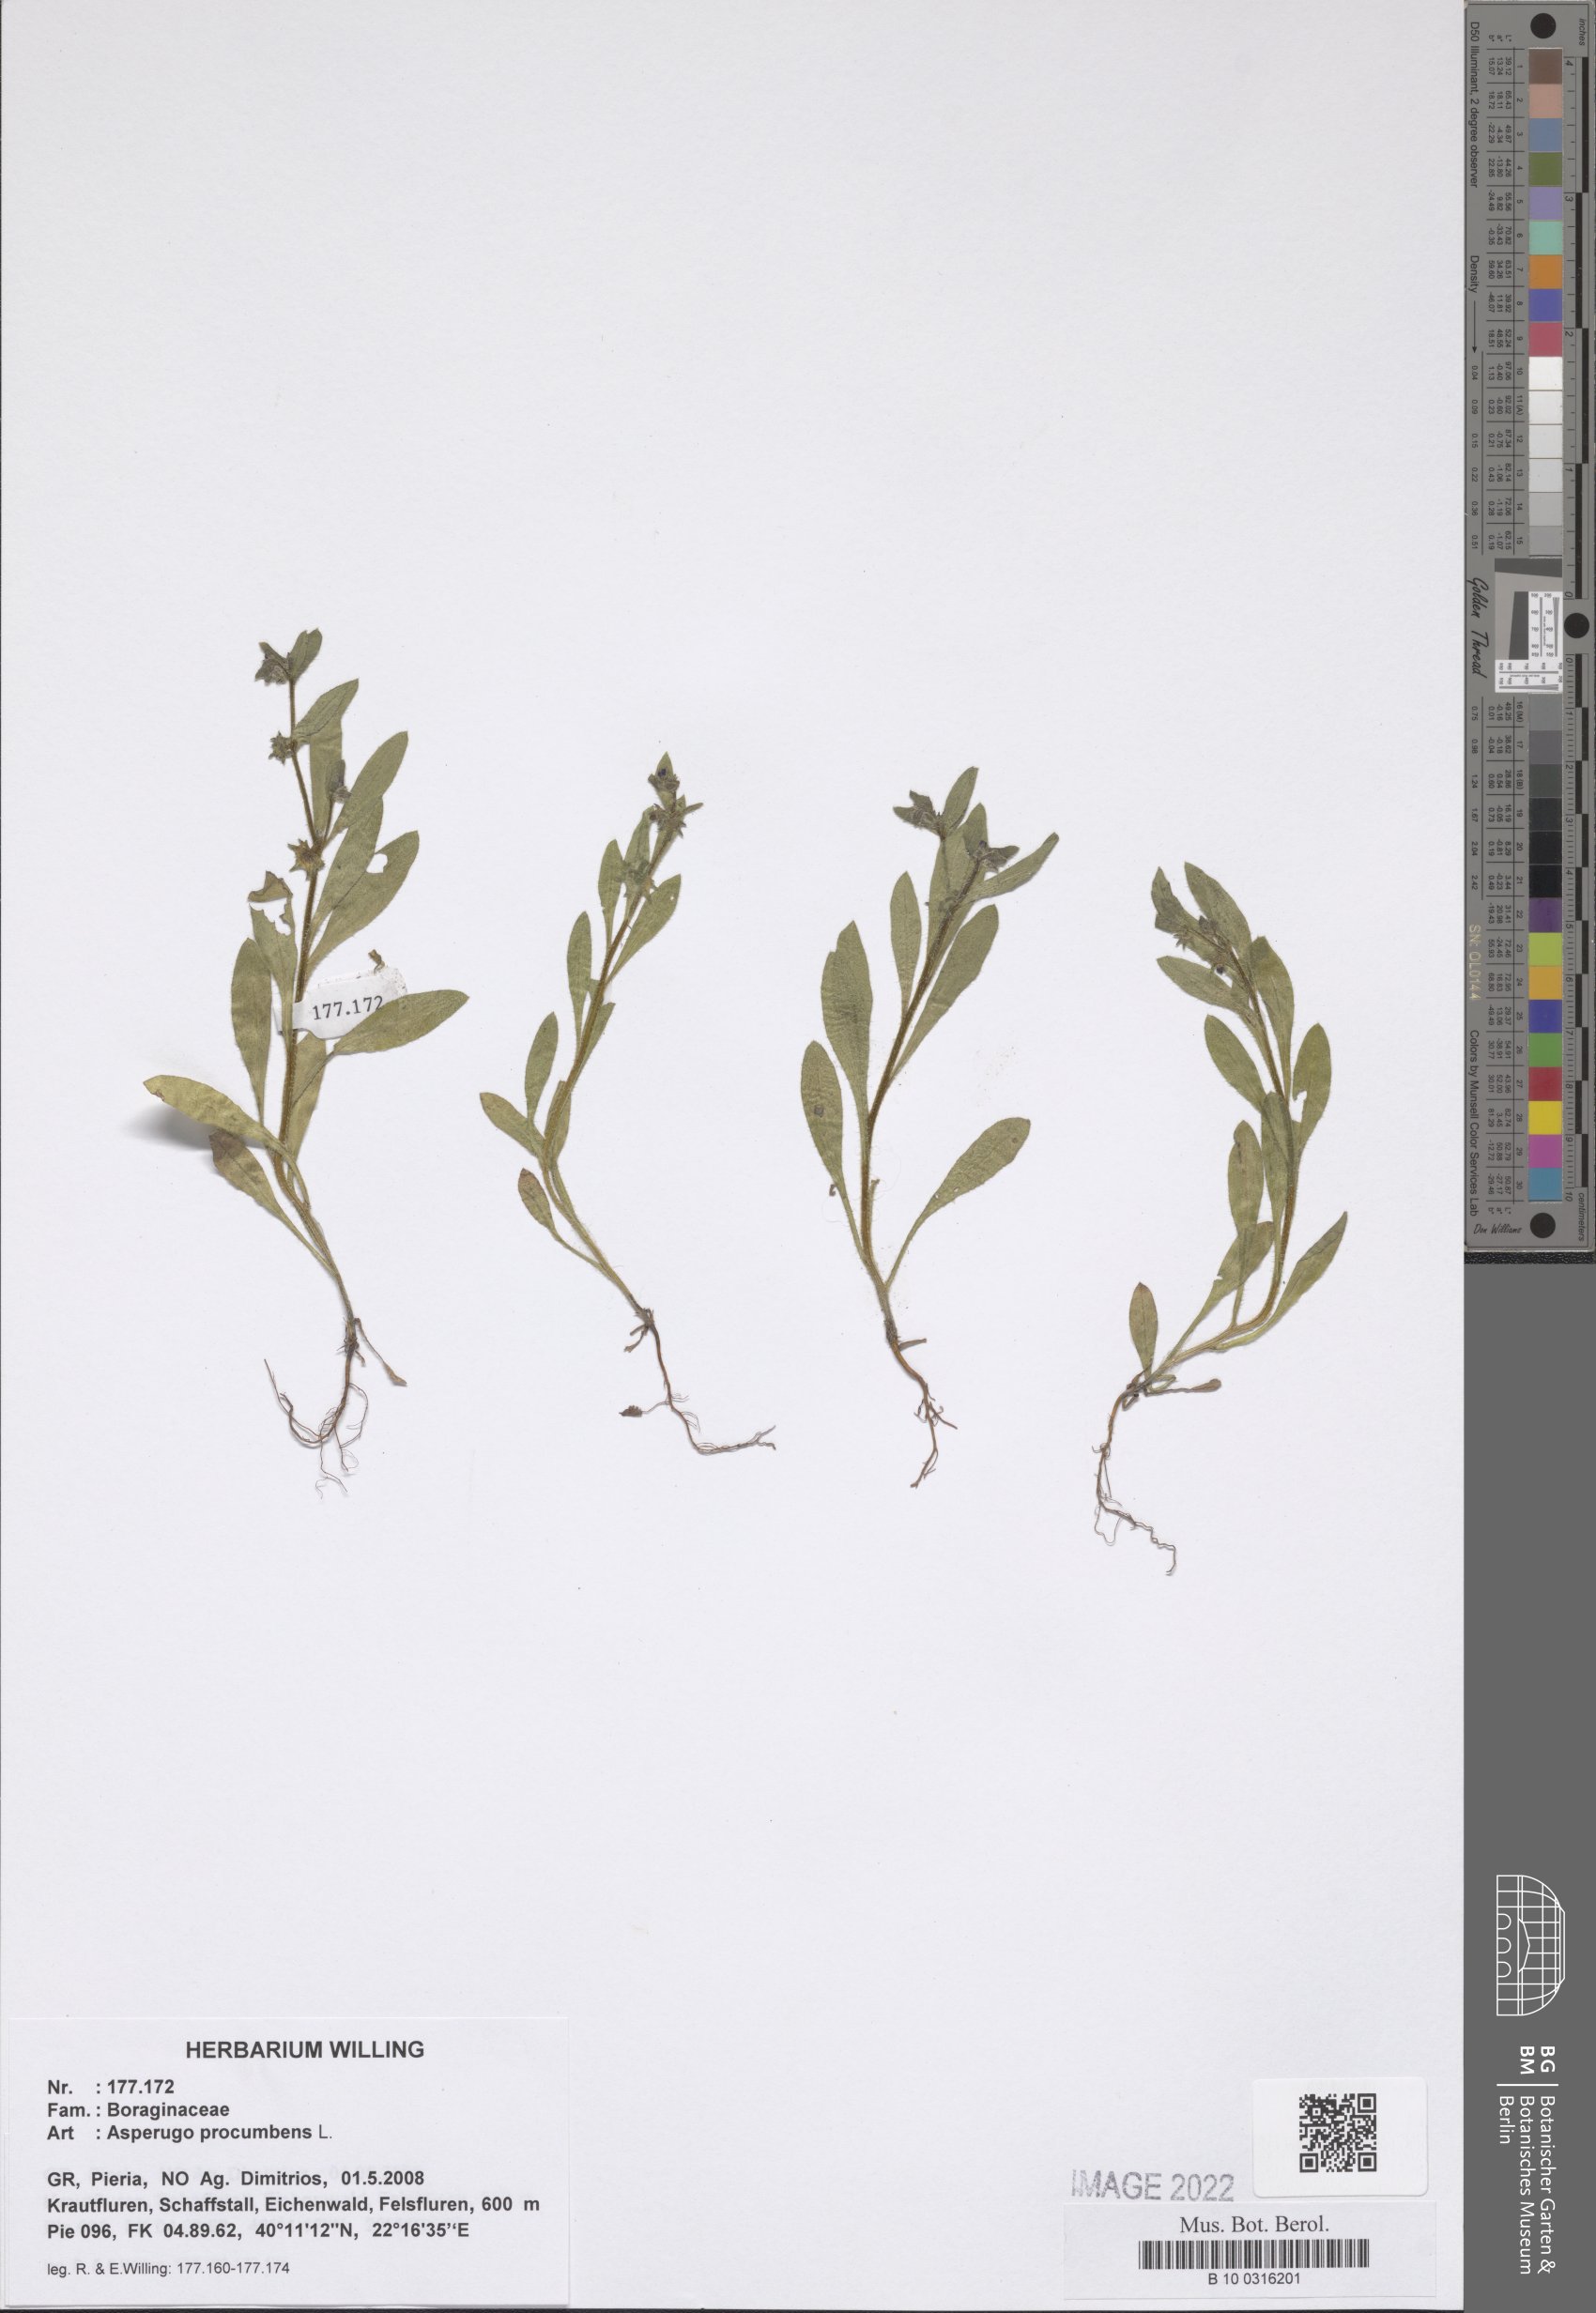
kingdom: Plantae
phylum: Tracheophyta
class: Magnoliopsida
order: Boraginales
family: Boraginaceae
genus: Asperugo
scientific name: Asperugo procumbens
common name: Madwort
